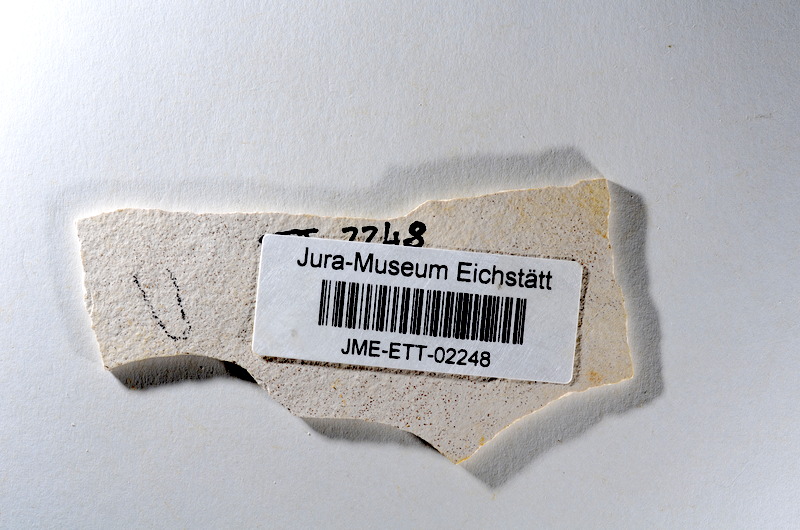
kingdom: Animalia
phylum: Chordata
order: Salmoniformes
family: Orthogonikleithridae
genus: Orthogonikleithrus
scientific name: Orthogonikleithrus hoelli
